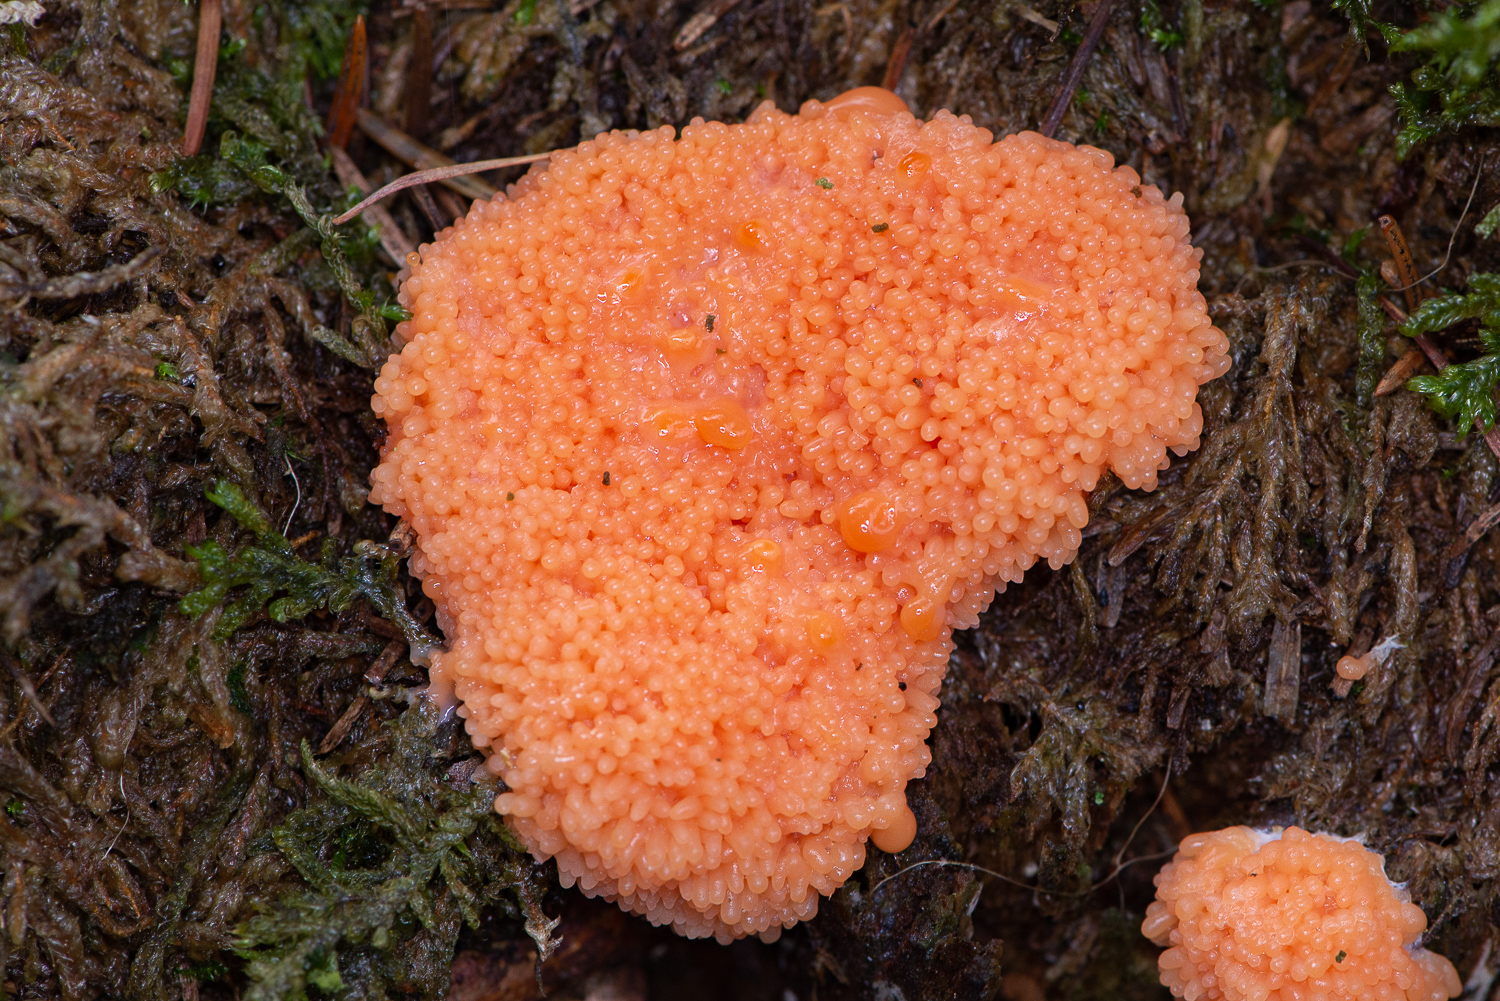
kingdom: Protozoa
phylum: Mycetozoa
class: Myxomycetes
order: Cribrariales
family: Tubiferaceae
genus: Tubifera
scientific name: Tubifera ferruginosa
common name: kanel-støvrør
